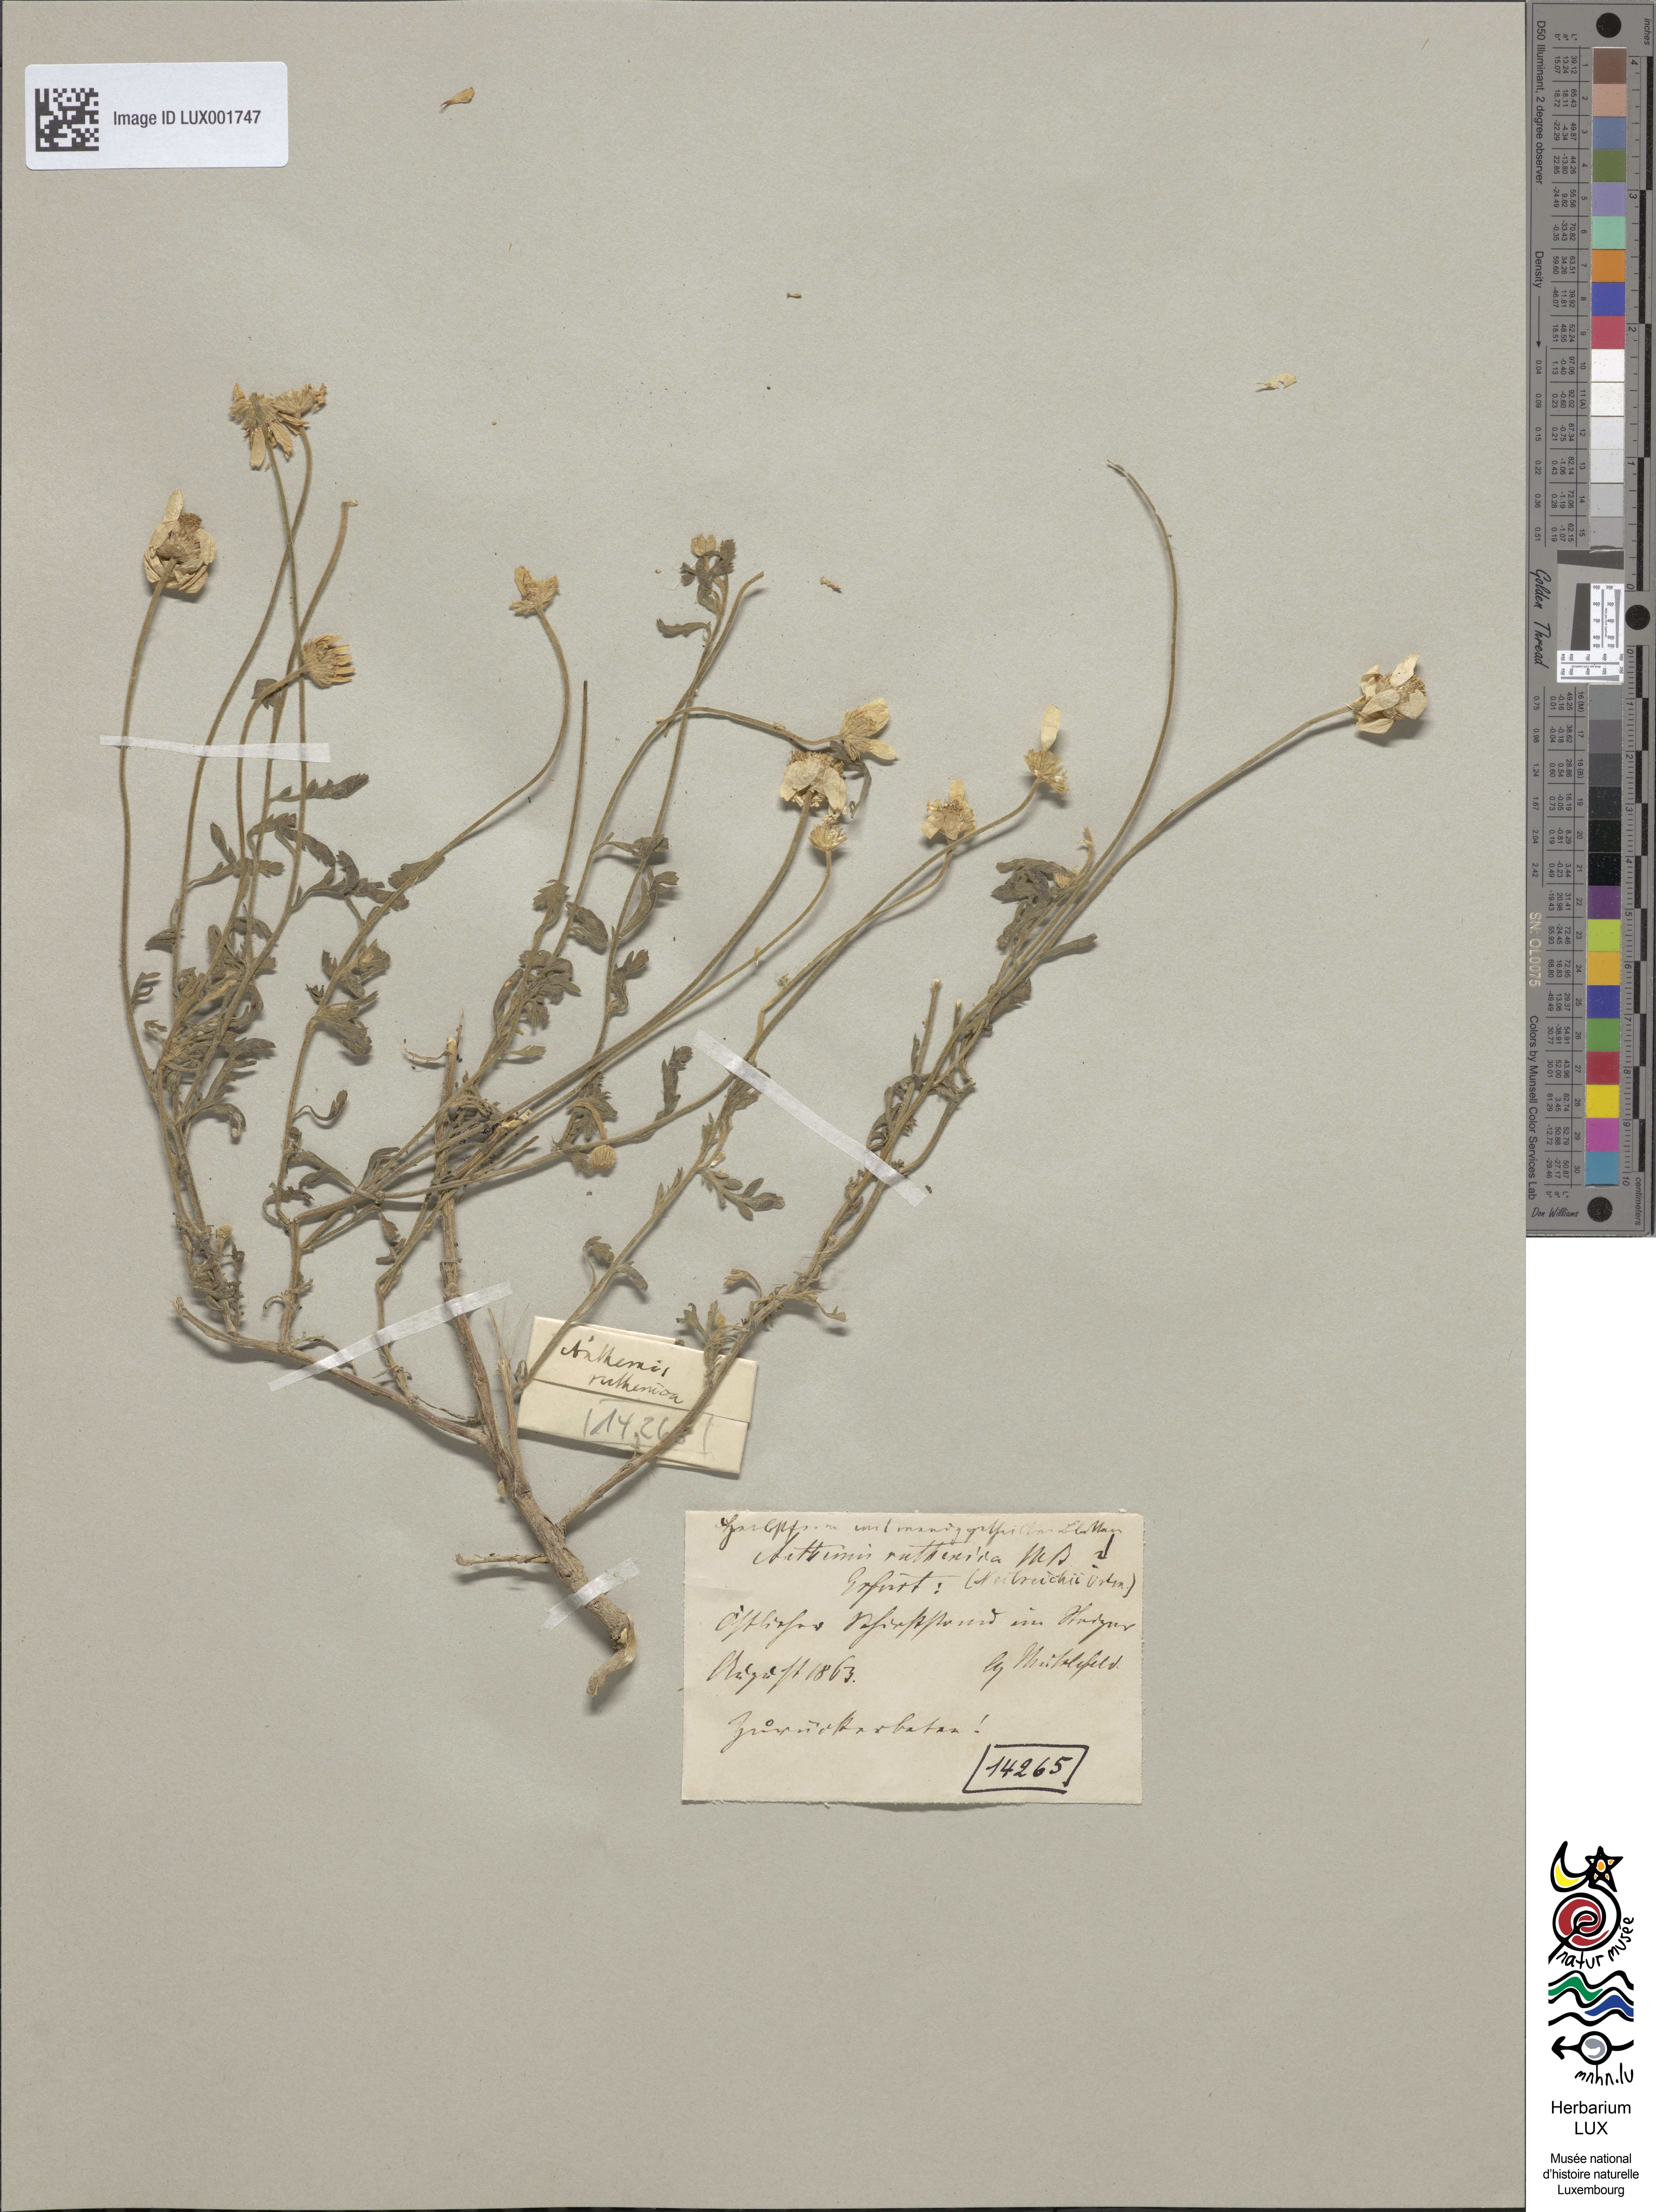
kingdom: Plantae
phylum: Tracheophyta
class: Magnoliopsida
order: Asterales
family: Asteraceae
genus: Anthemis
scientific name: Anthemis ruthenica
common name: Eastern chamomile
